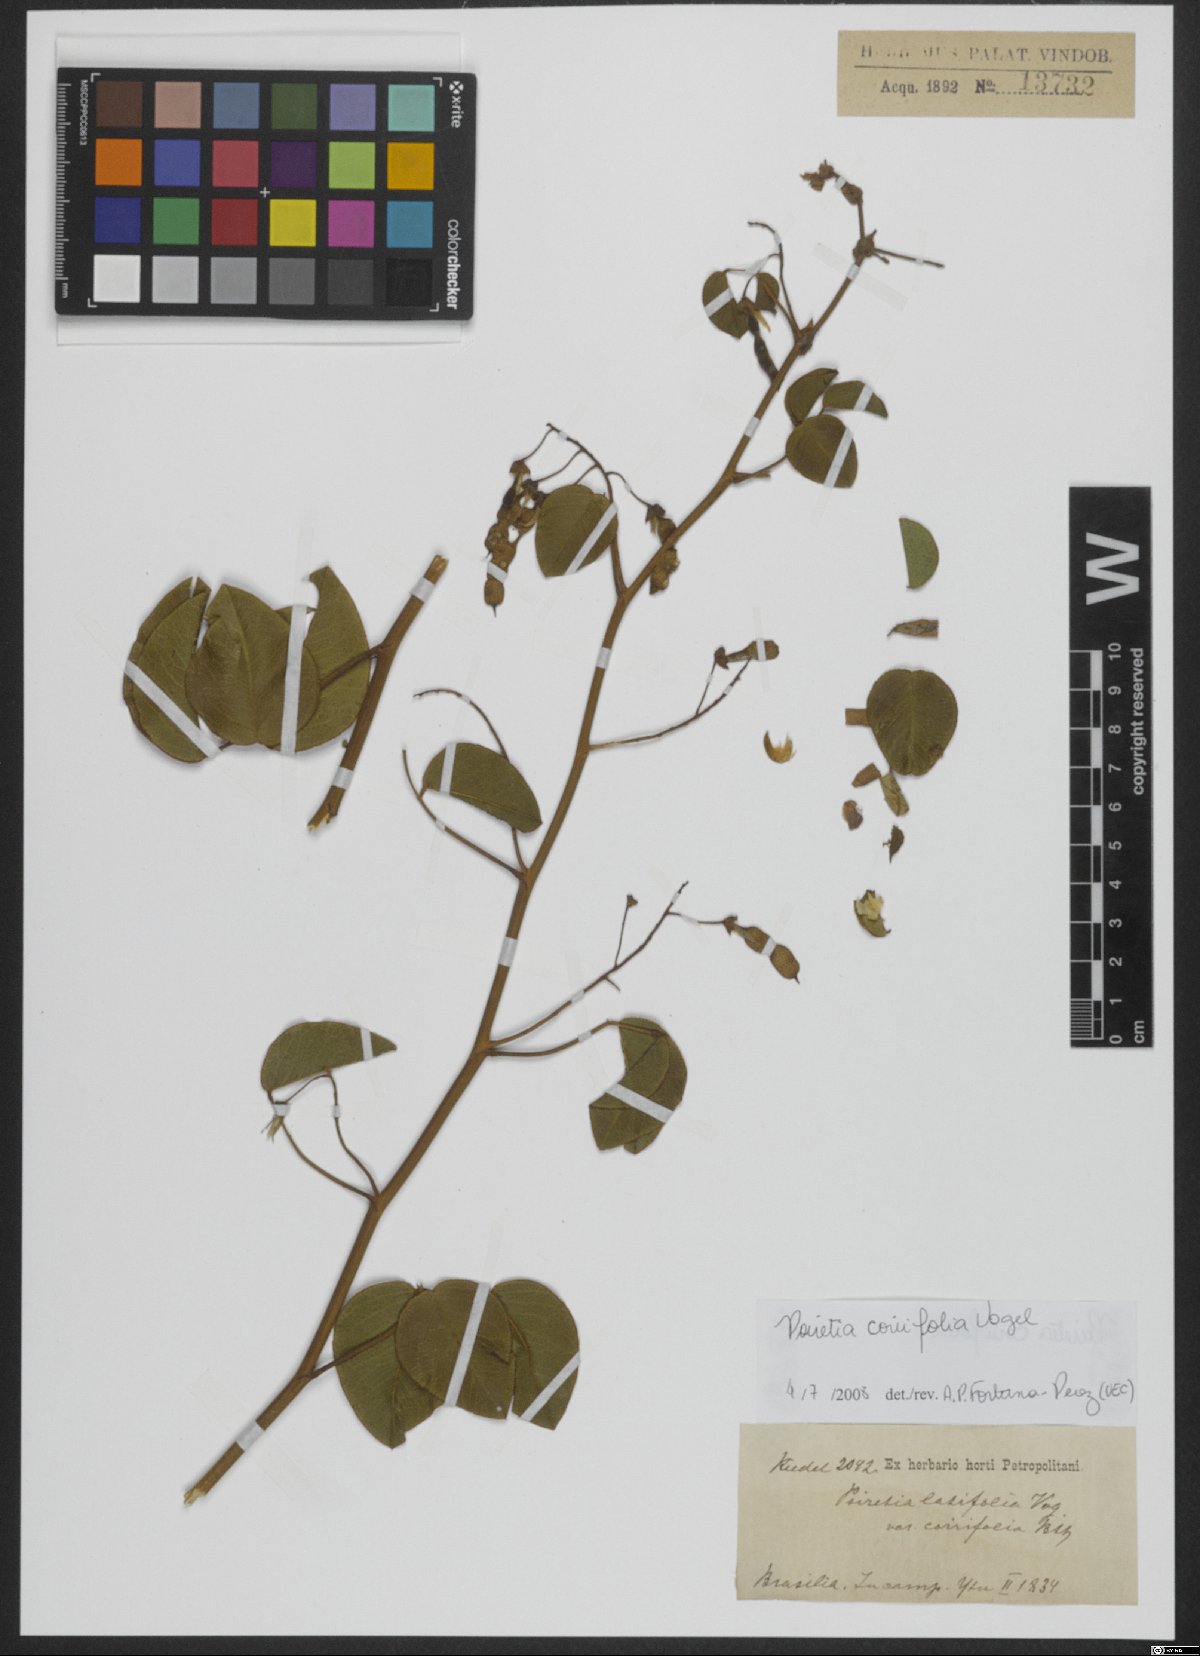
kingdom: Plantae
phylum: Tracheophyta
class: Magnoliopsida
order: Fabales
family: Fabaceae
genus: Poiretia
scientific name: Poiretia coriifolia
